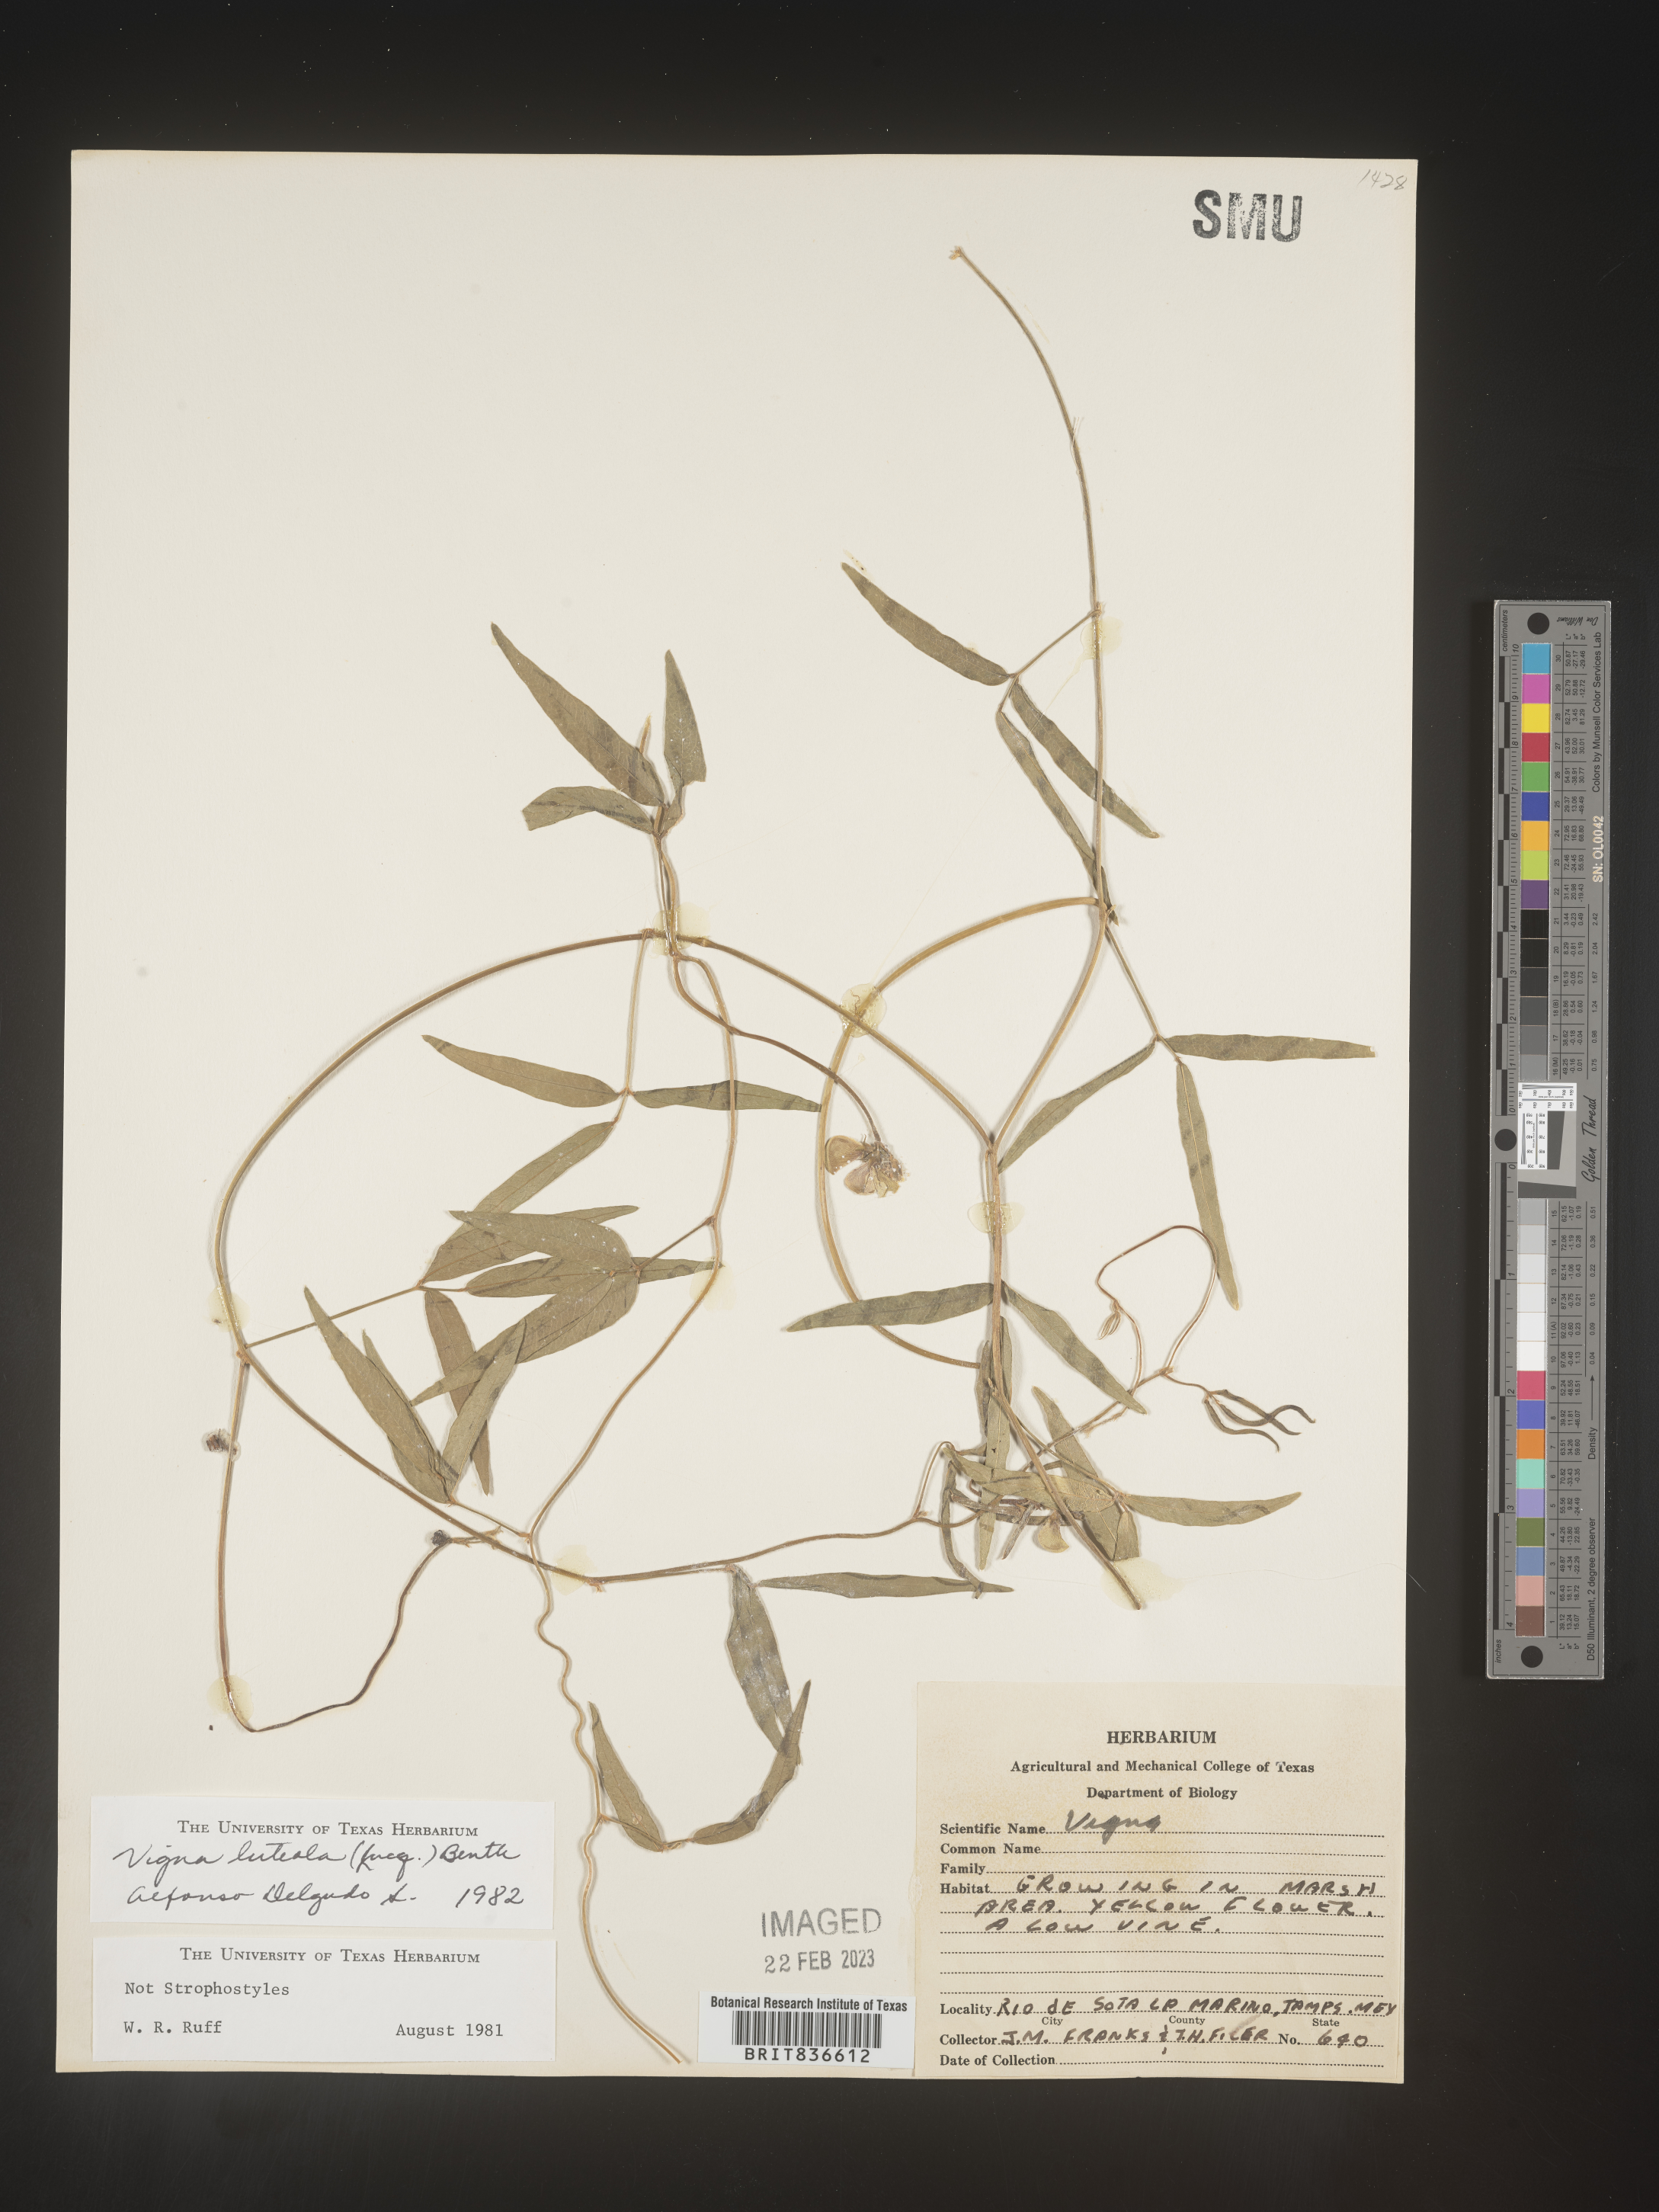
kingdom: Plantae
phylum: Tracheophyta
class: Magnoliopsida
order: Fabales
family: Fabaceae
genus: Vigna
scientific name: Vigna
